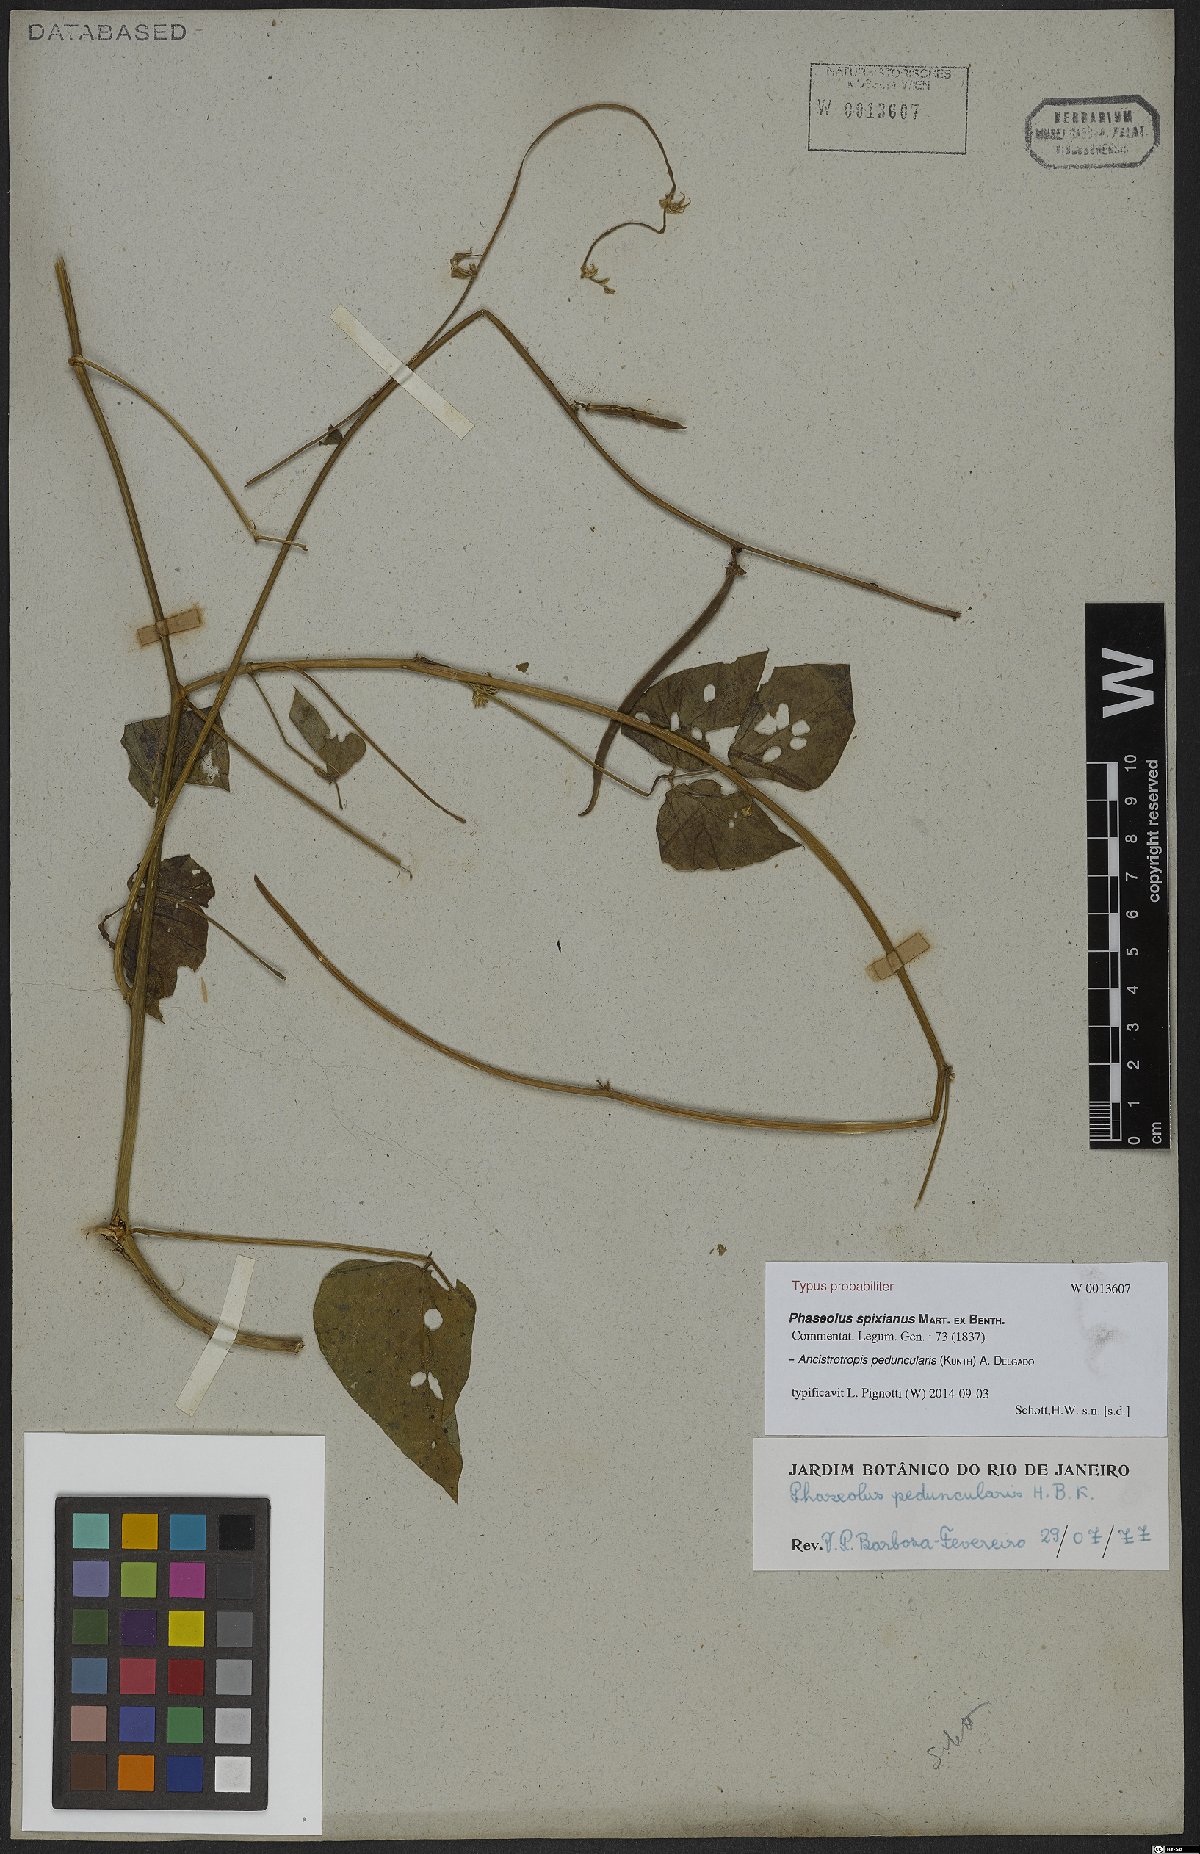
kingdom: Plantae
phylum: Tracheophyta
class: Magnoliopsida
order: Fabales
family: Fabaceae
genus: Ancistrotropis
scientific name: Ancistrotropis peduncularis
